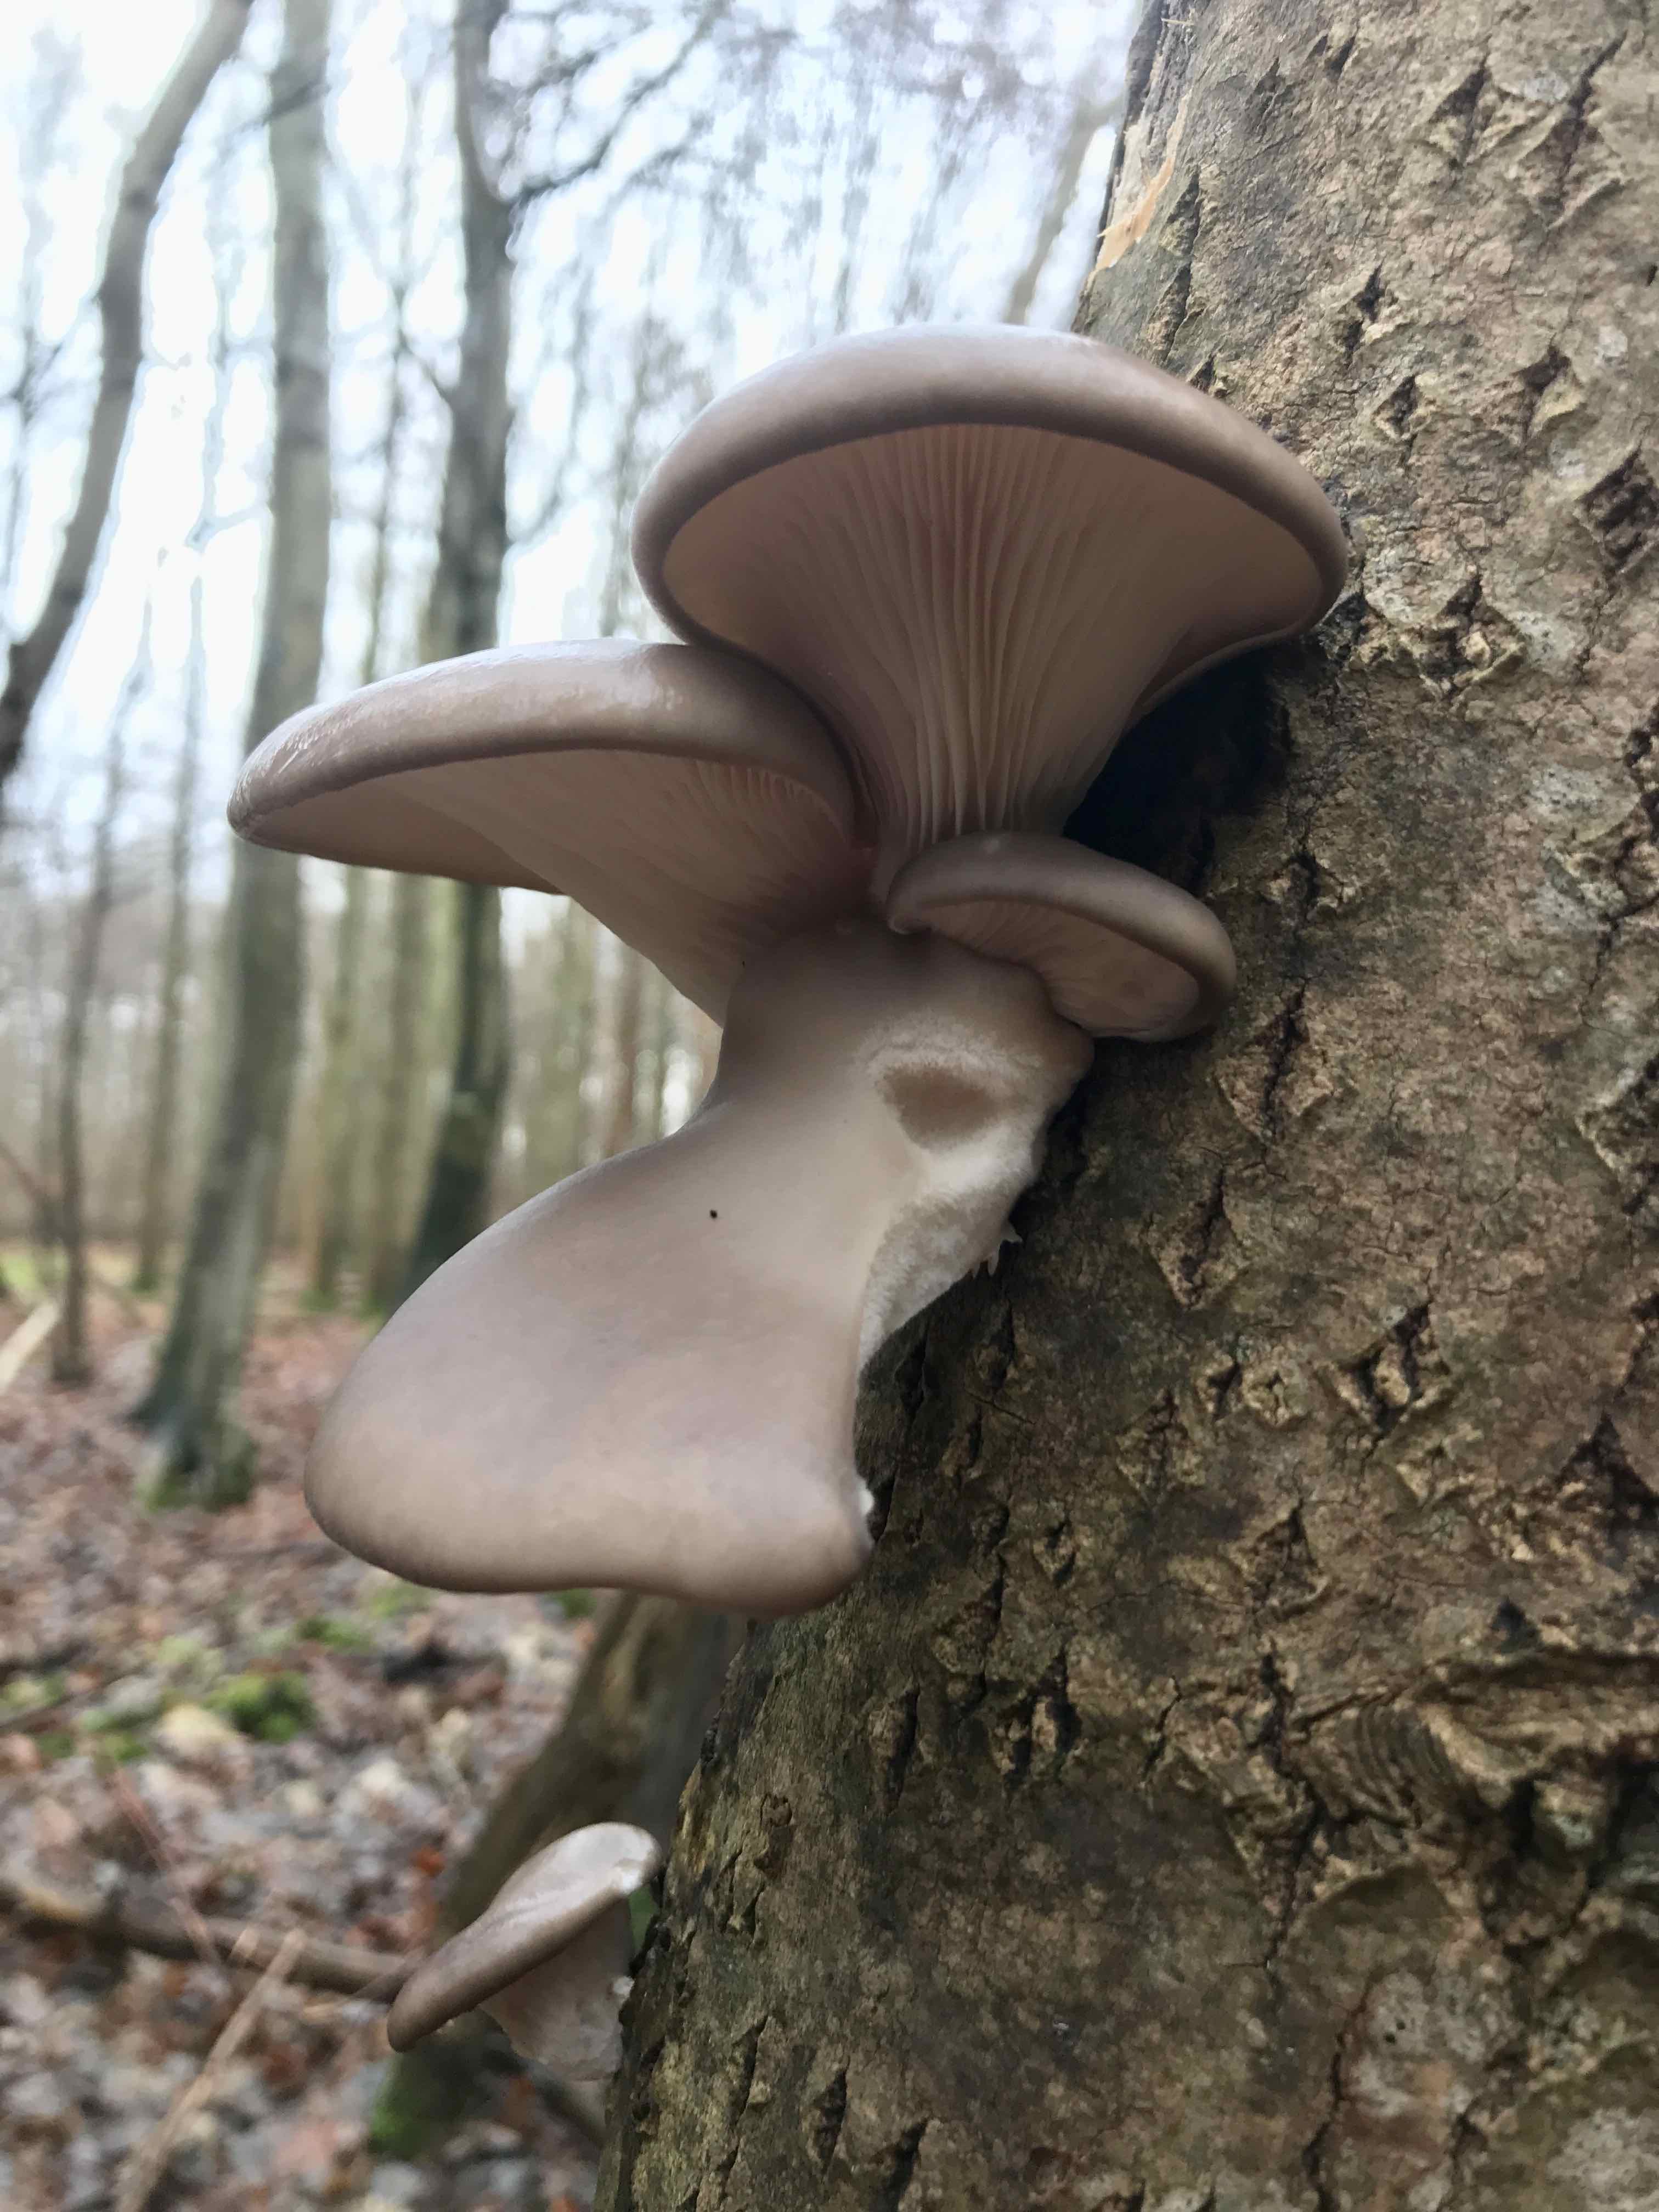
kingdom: Fungi
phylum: Basidiomycota
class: Agaricomycetes
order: Agaricales
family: Pleurotaceae
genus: Pleurotus
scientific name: Pleurotus ostreatus
